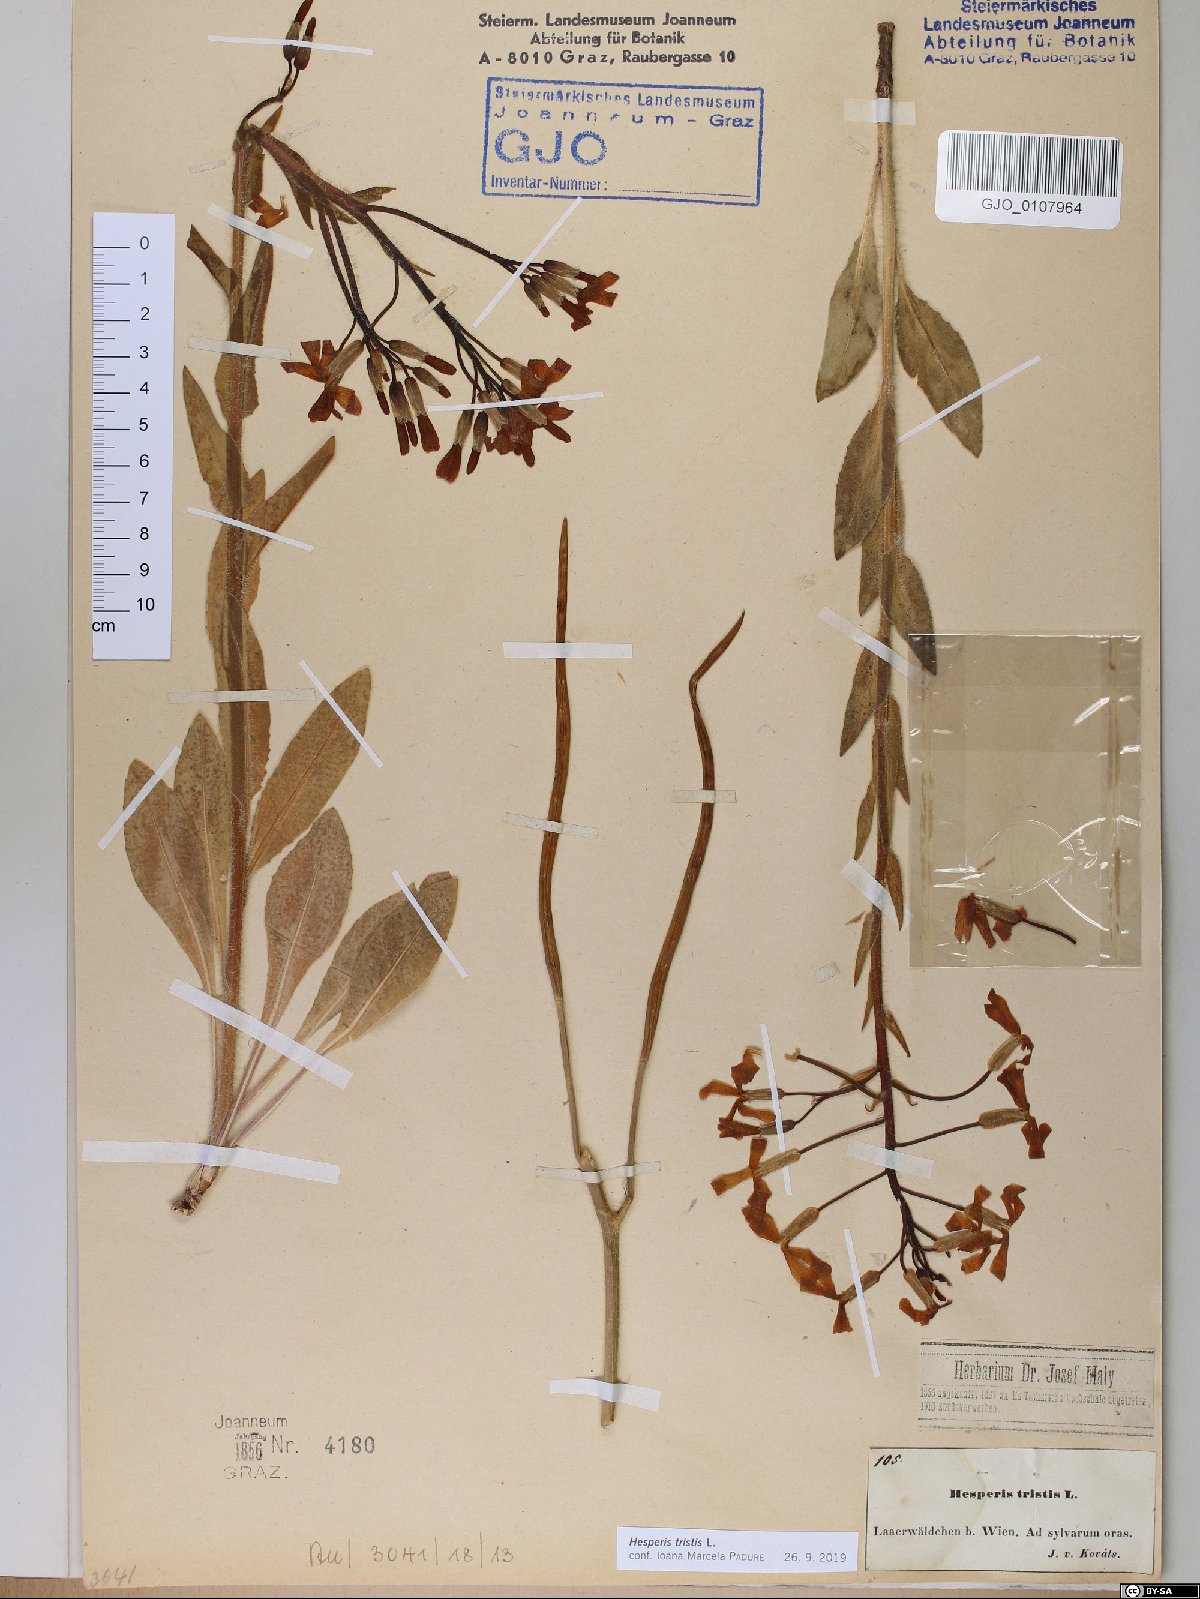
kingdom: Plantae
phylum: Tracheophyta
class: Magnoliopsida
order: Brassicales
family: Brassicaceae
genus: Hesperis
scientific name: Hesperis tristis
